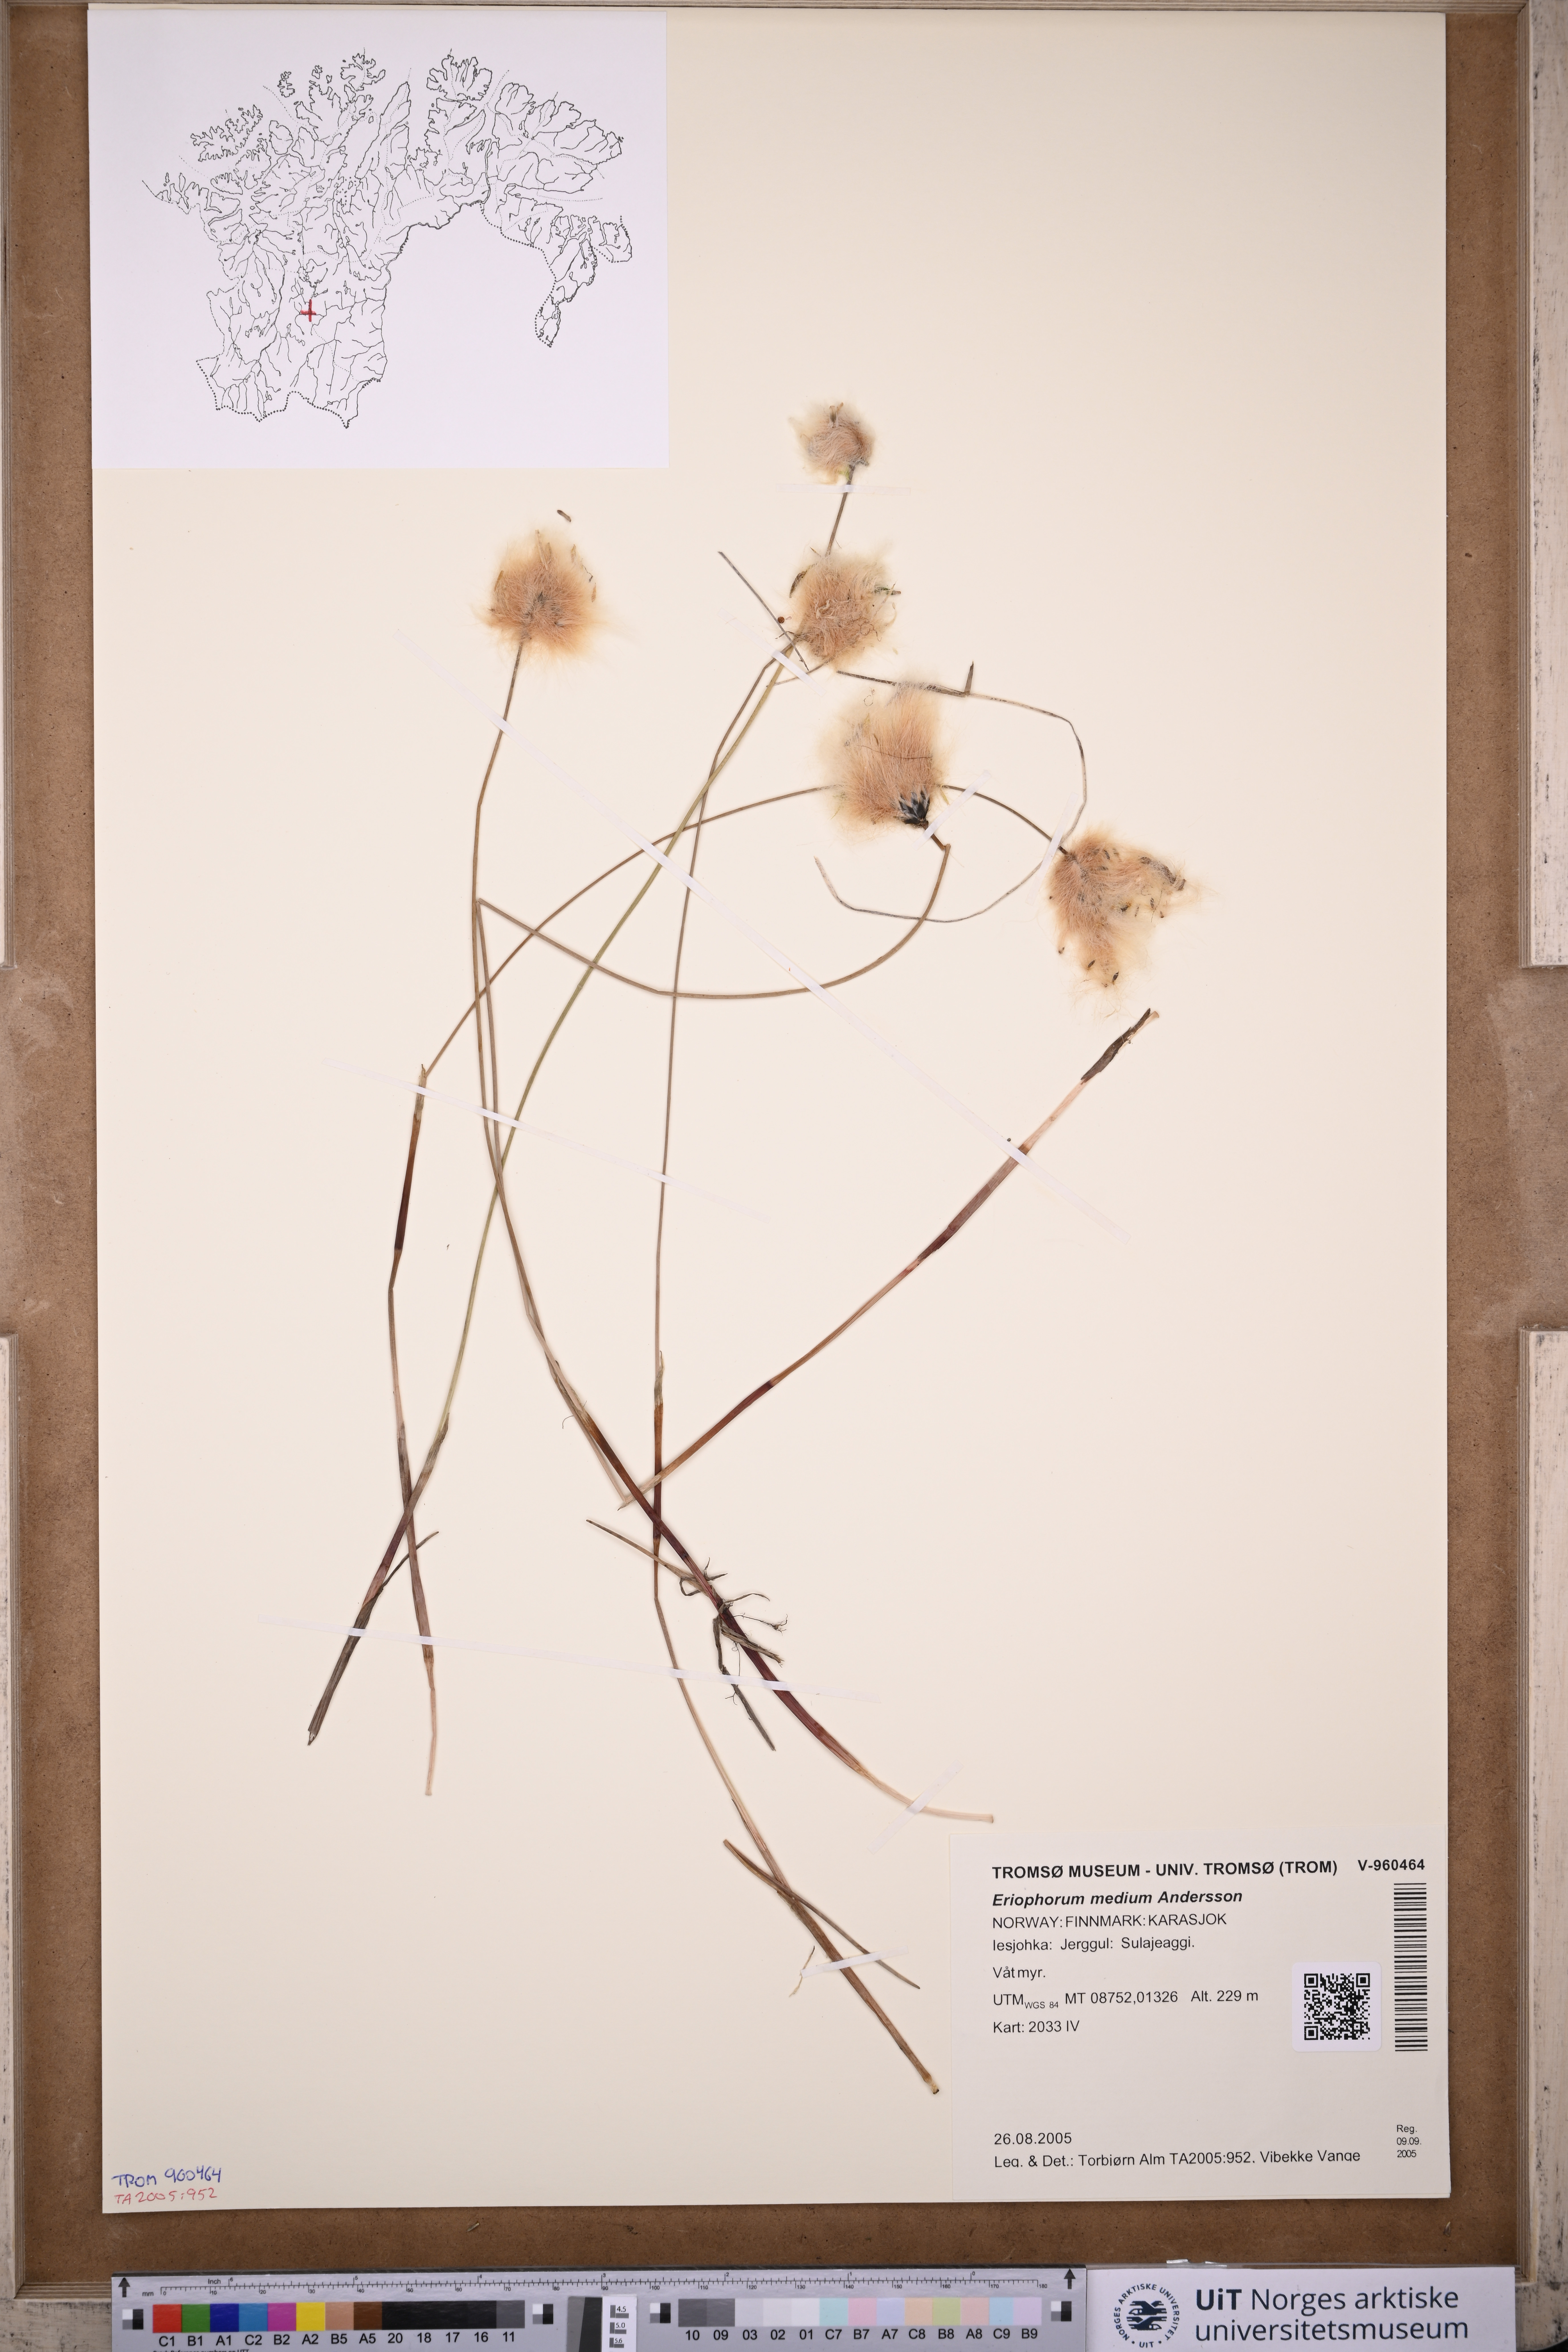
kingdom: Plantae
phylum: Tracheophyta
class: Liliopsida
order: Poales
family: Cyperaceae
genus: Eriophorum
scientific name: Eriophorum medium
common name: Intermediate cottongrass
